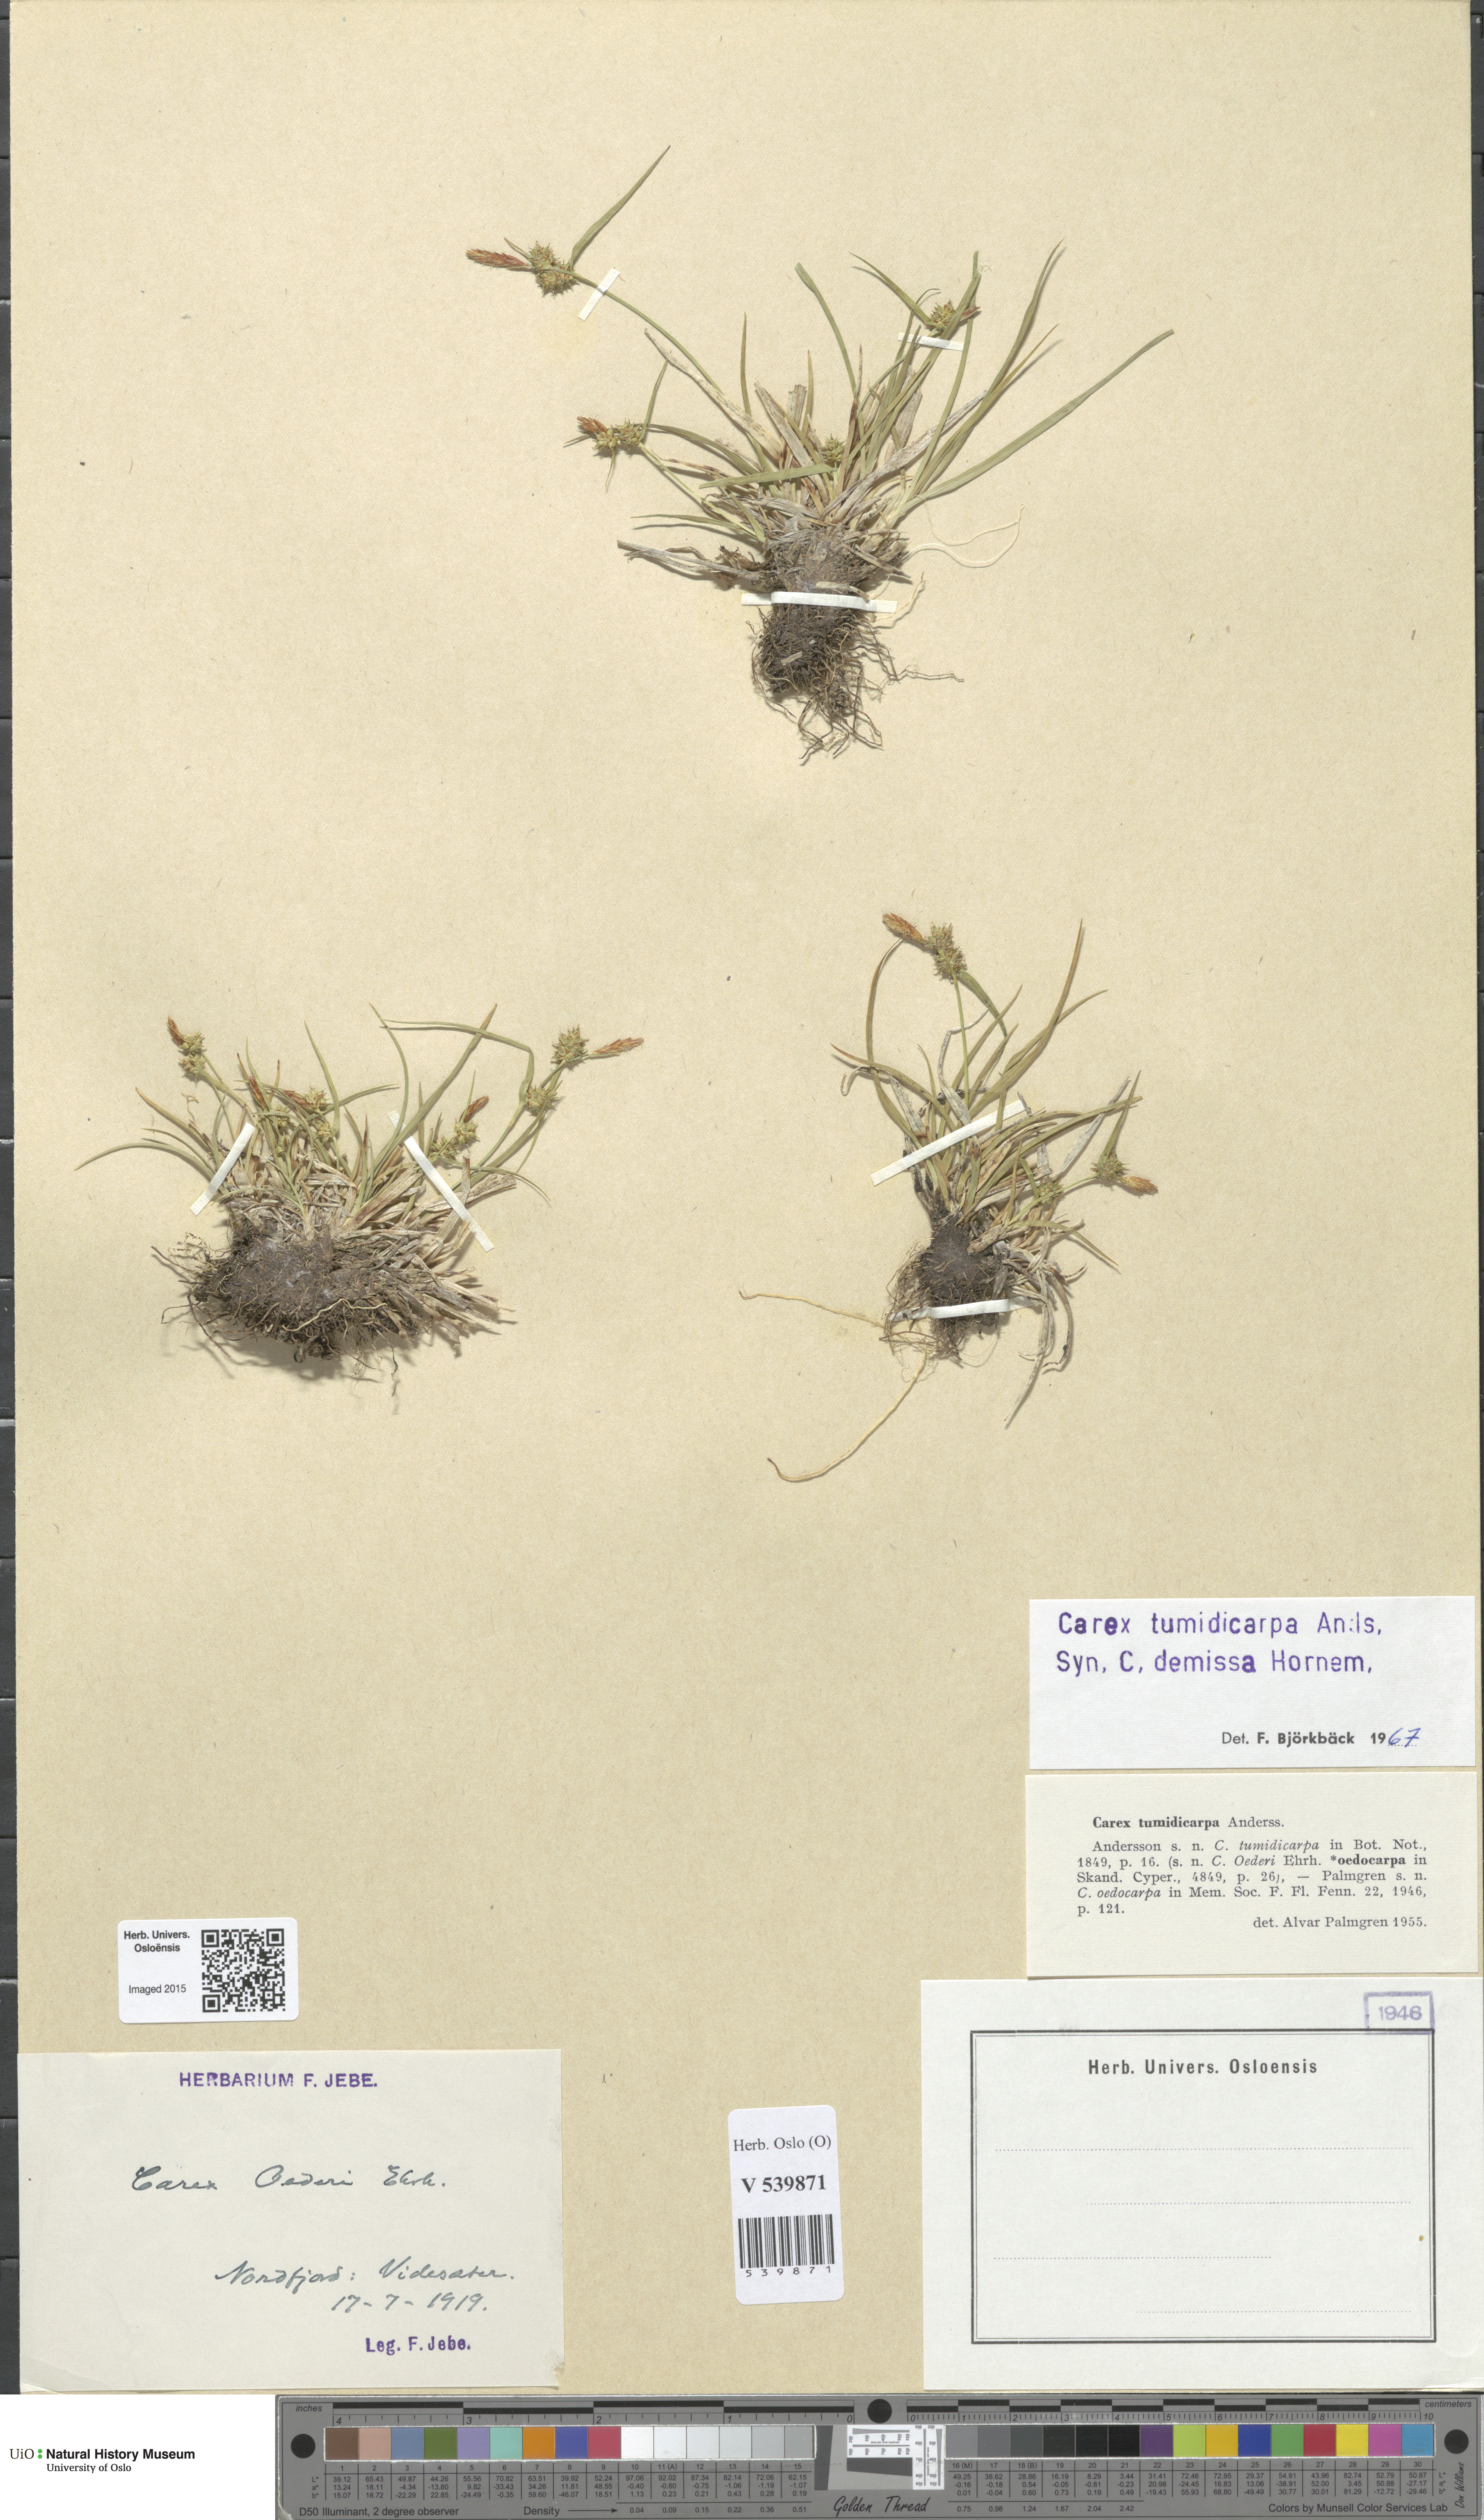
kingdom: Plantae
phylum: Tracheophyta
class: Liliopsida
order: Poales
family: Cyperaceae
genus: Carex
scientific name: Carex demissa
